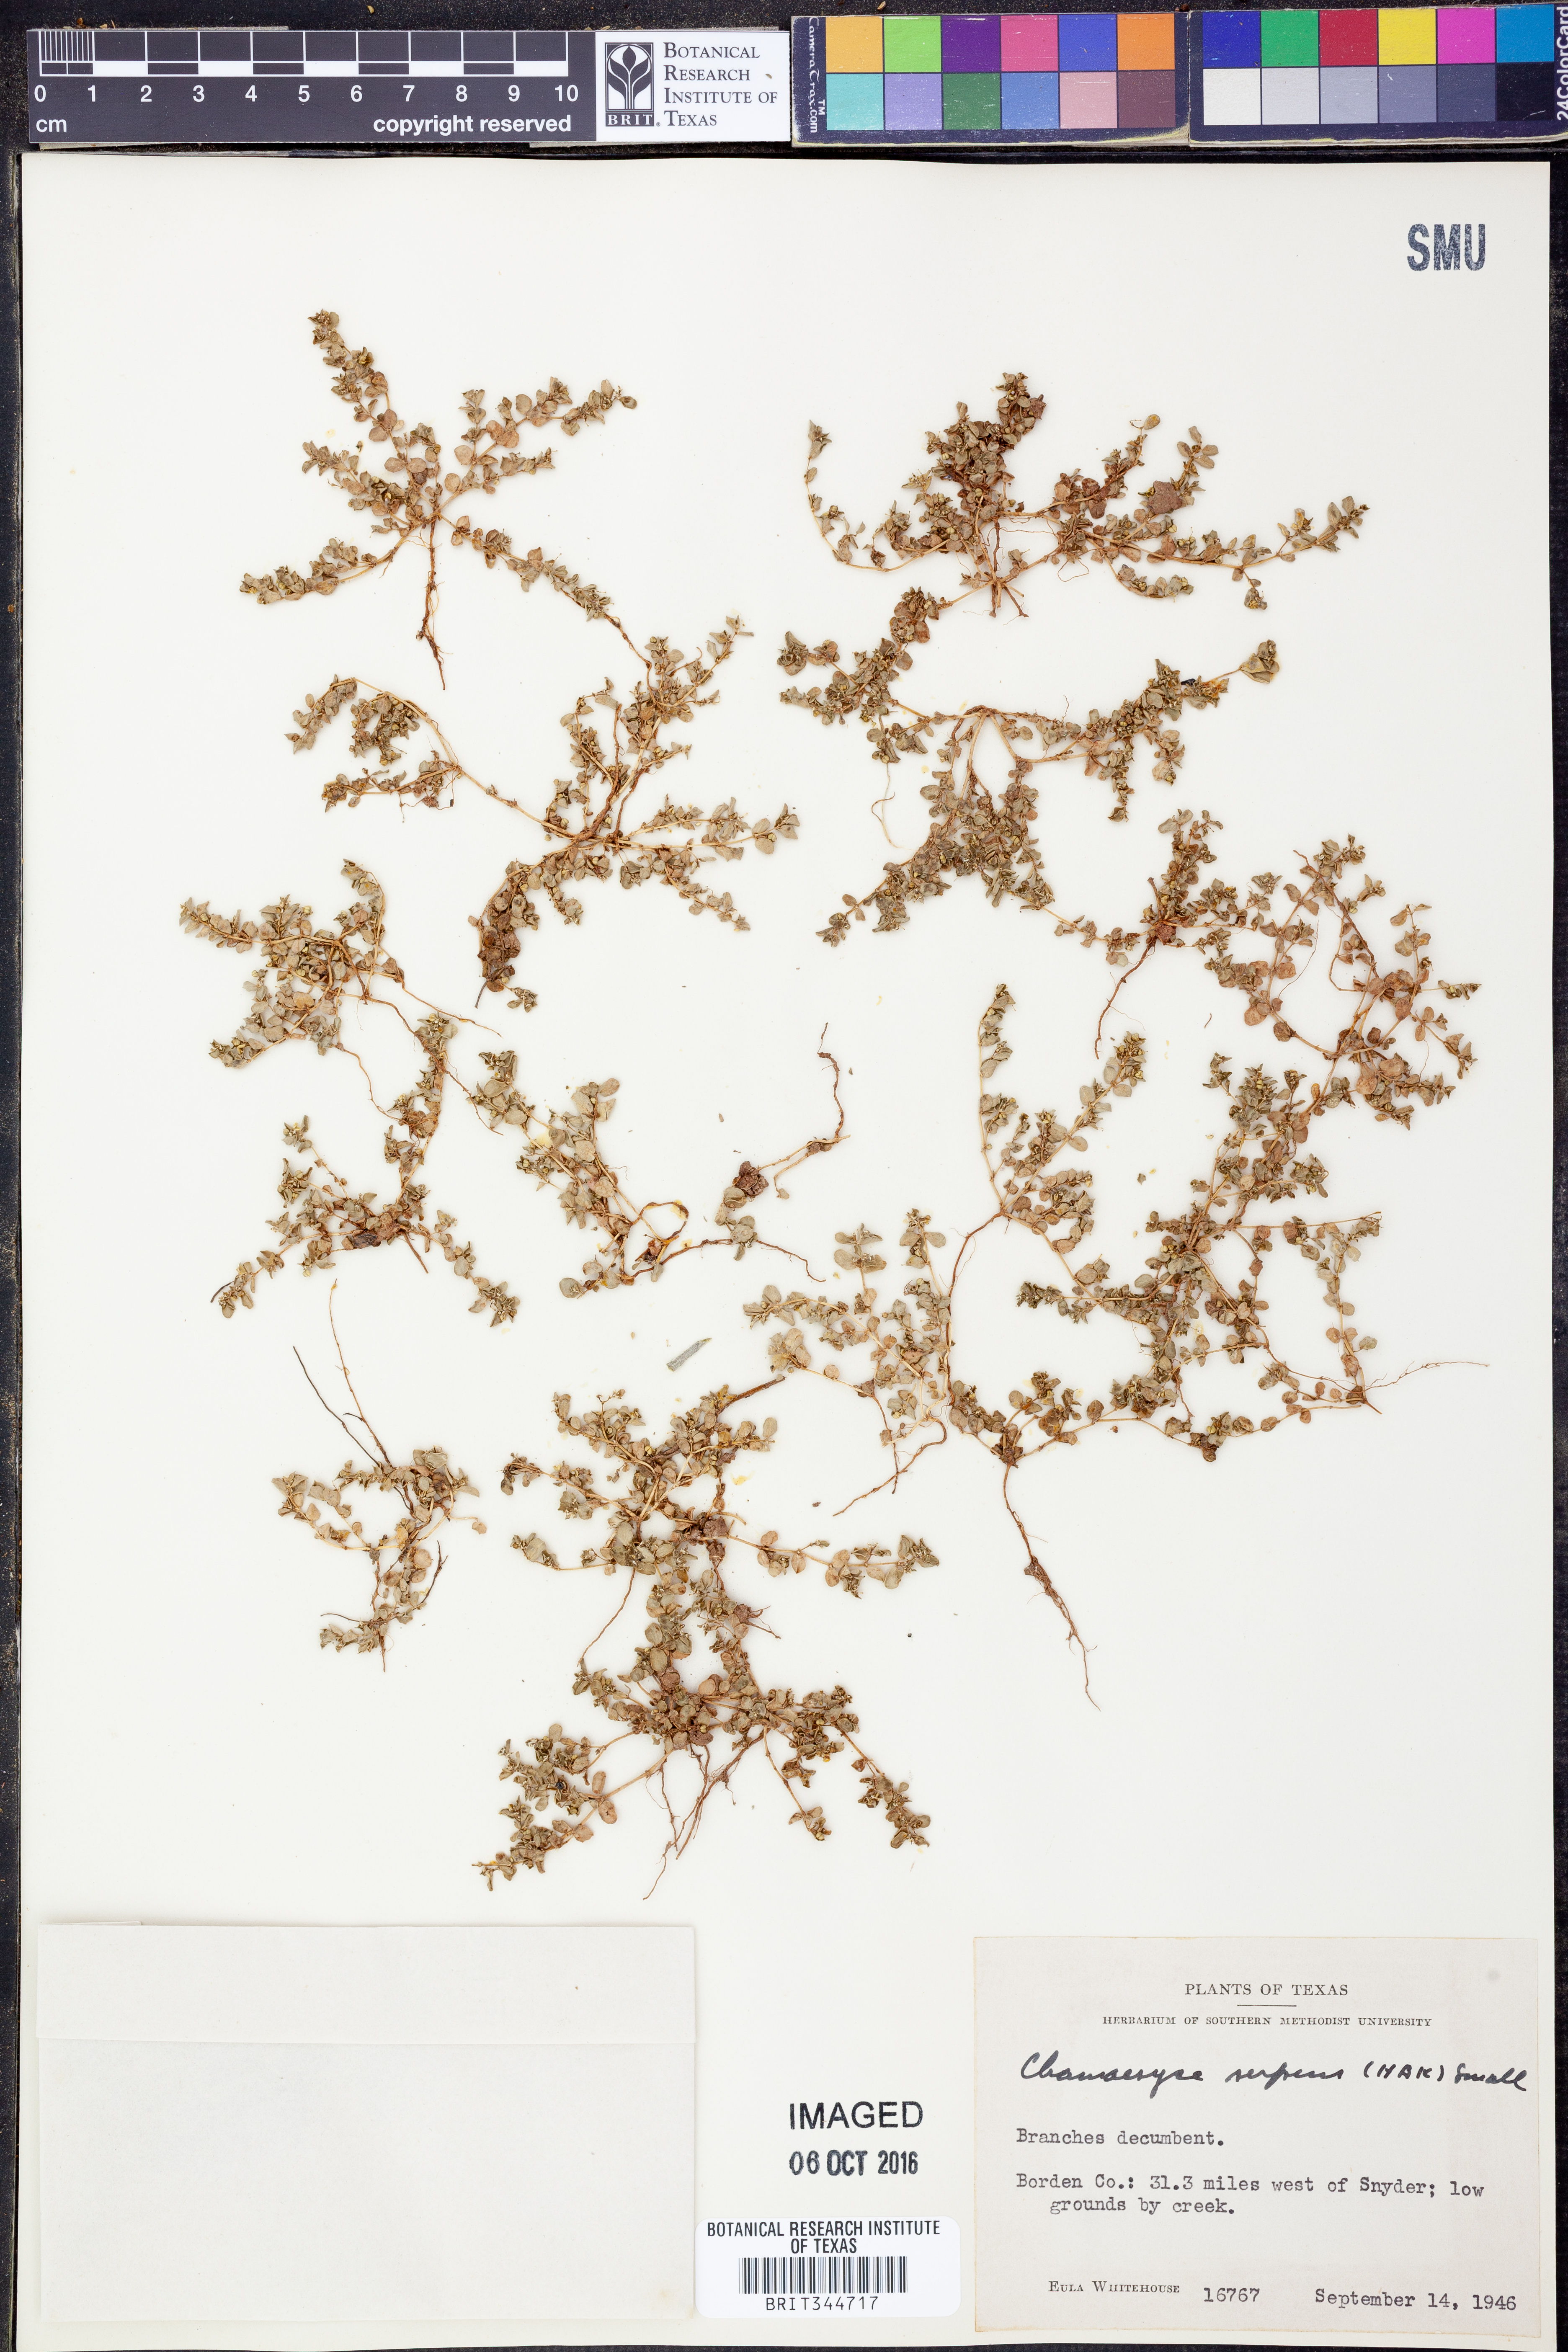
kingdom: Plantae
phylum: Tracheophyta
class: Magnoliopsida
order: Malpighiales
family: Euphorbiaceae
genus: Euphorbia
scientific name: Euphorbia serpens
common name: Matted sandmat
